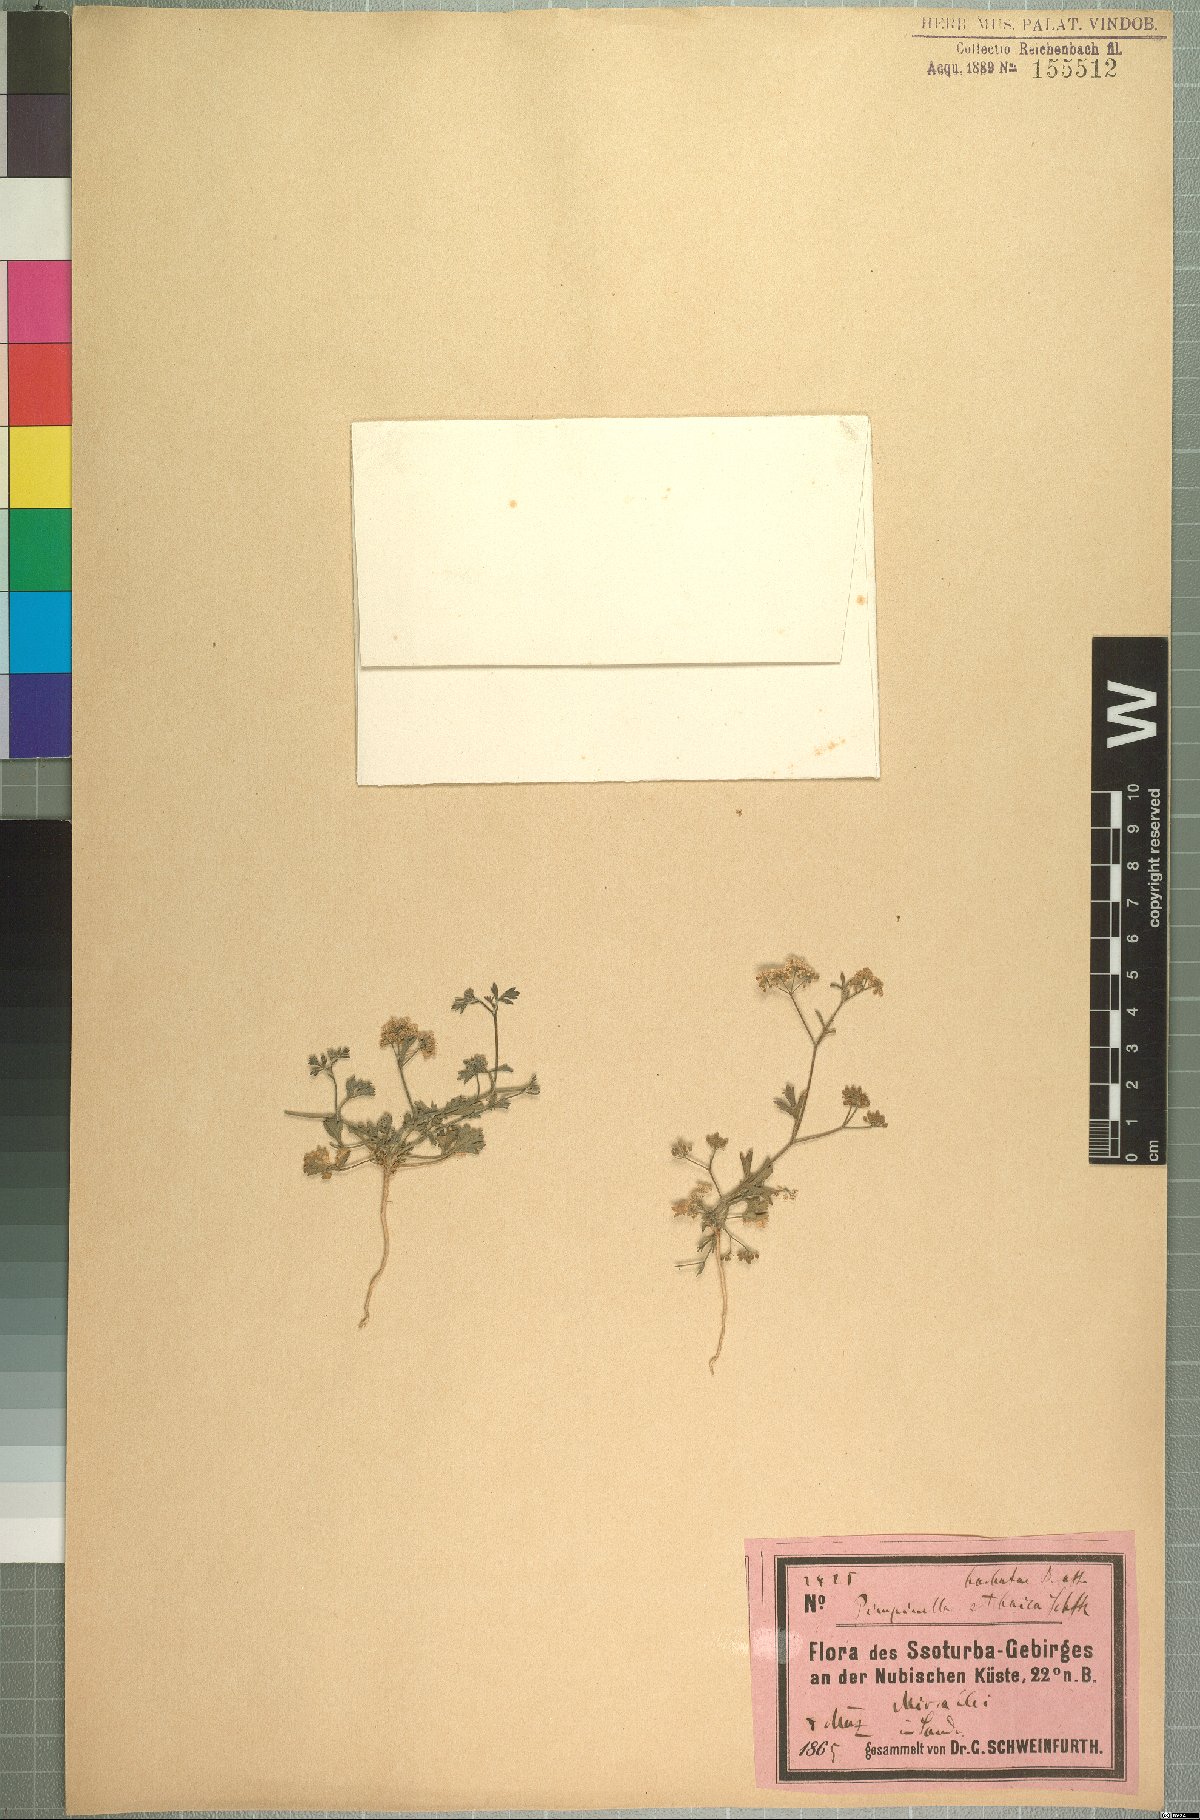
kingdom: Plantae
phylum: Tracheophyta
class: Magnoliopsida
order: Apiales
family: Apiaceae
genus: Pimpinella
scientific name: Pimpinella etbaica
